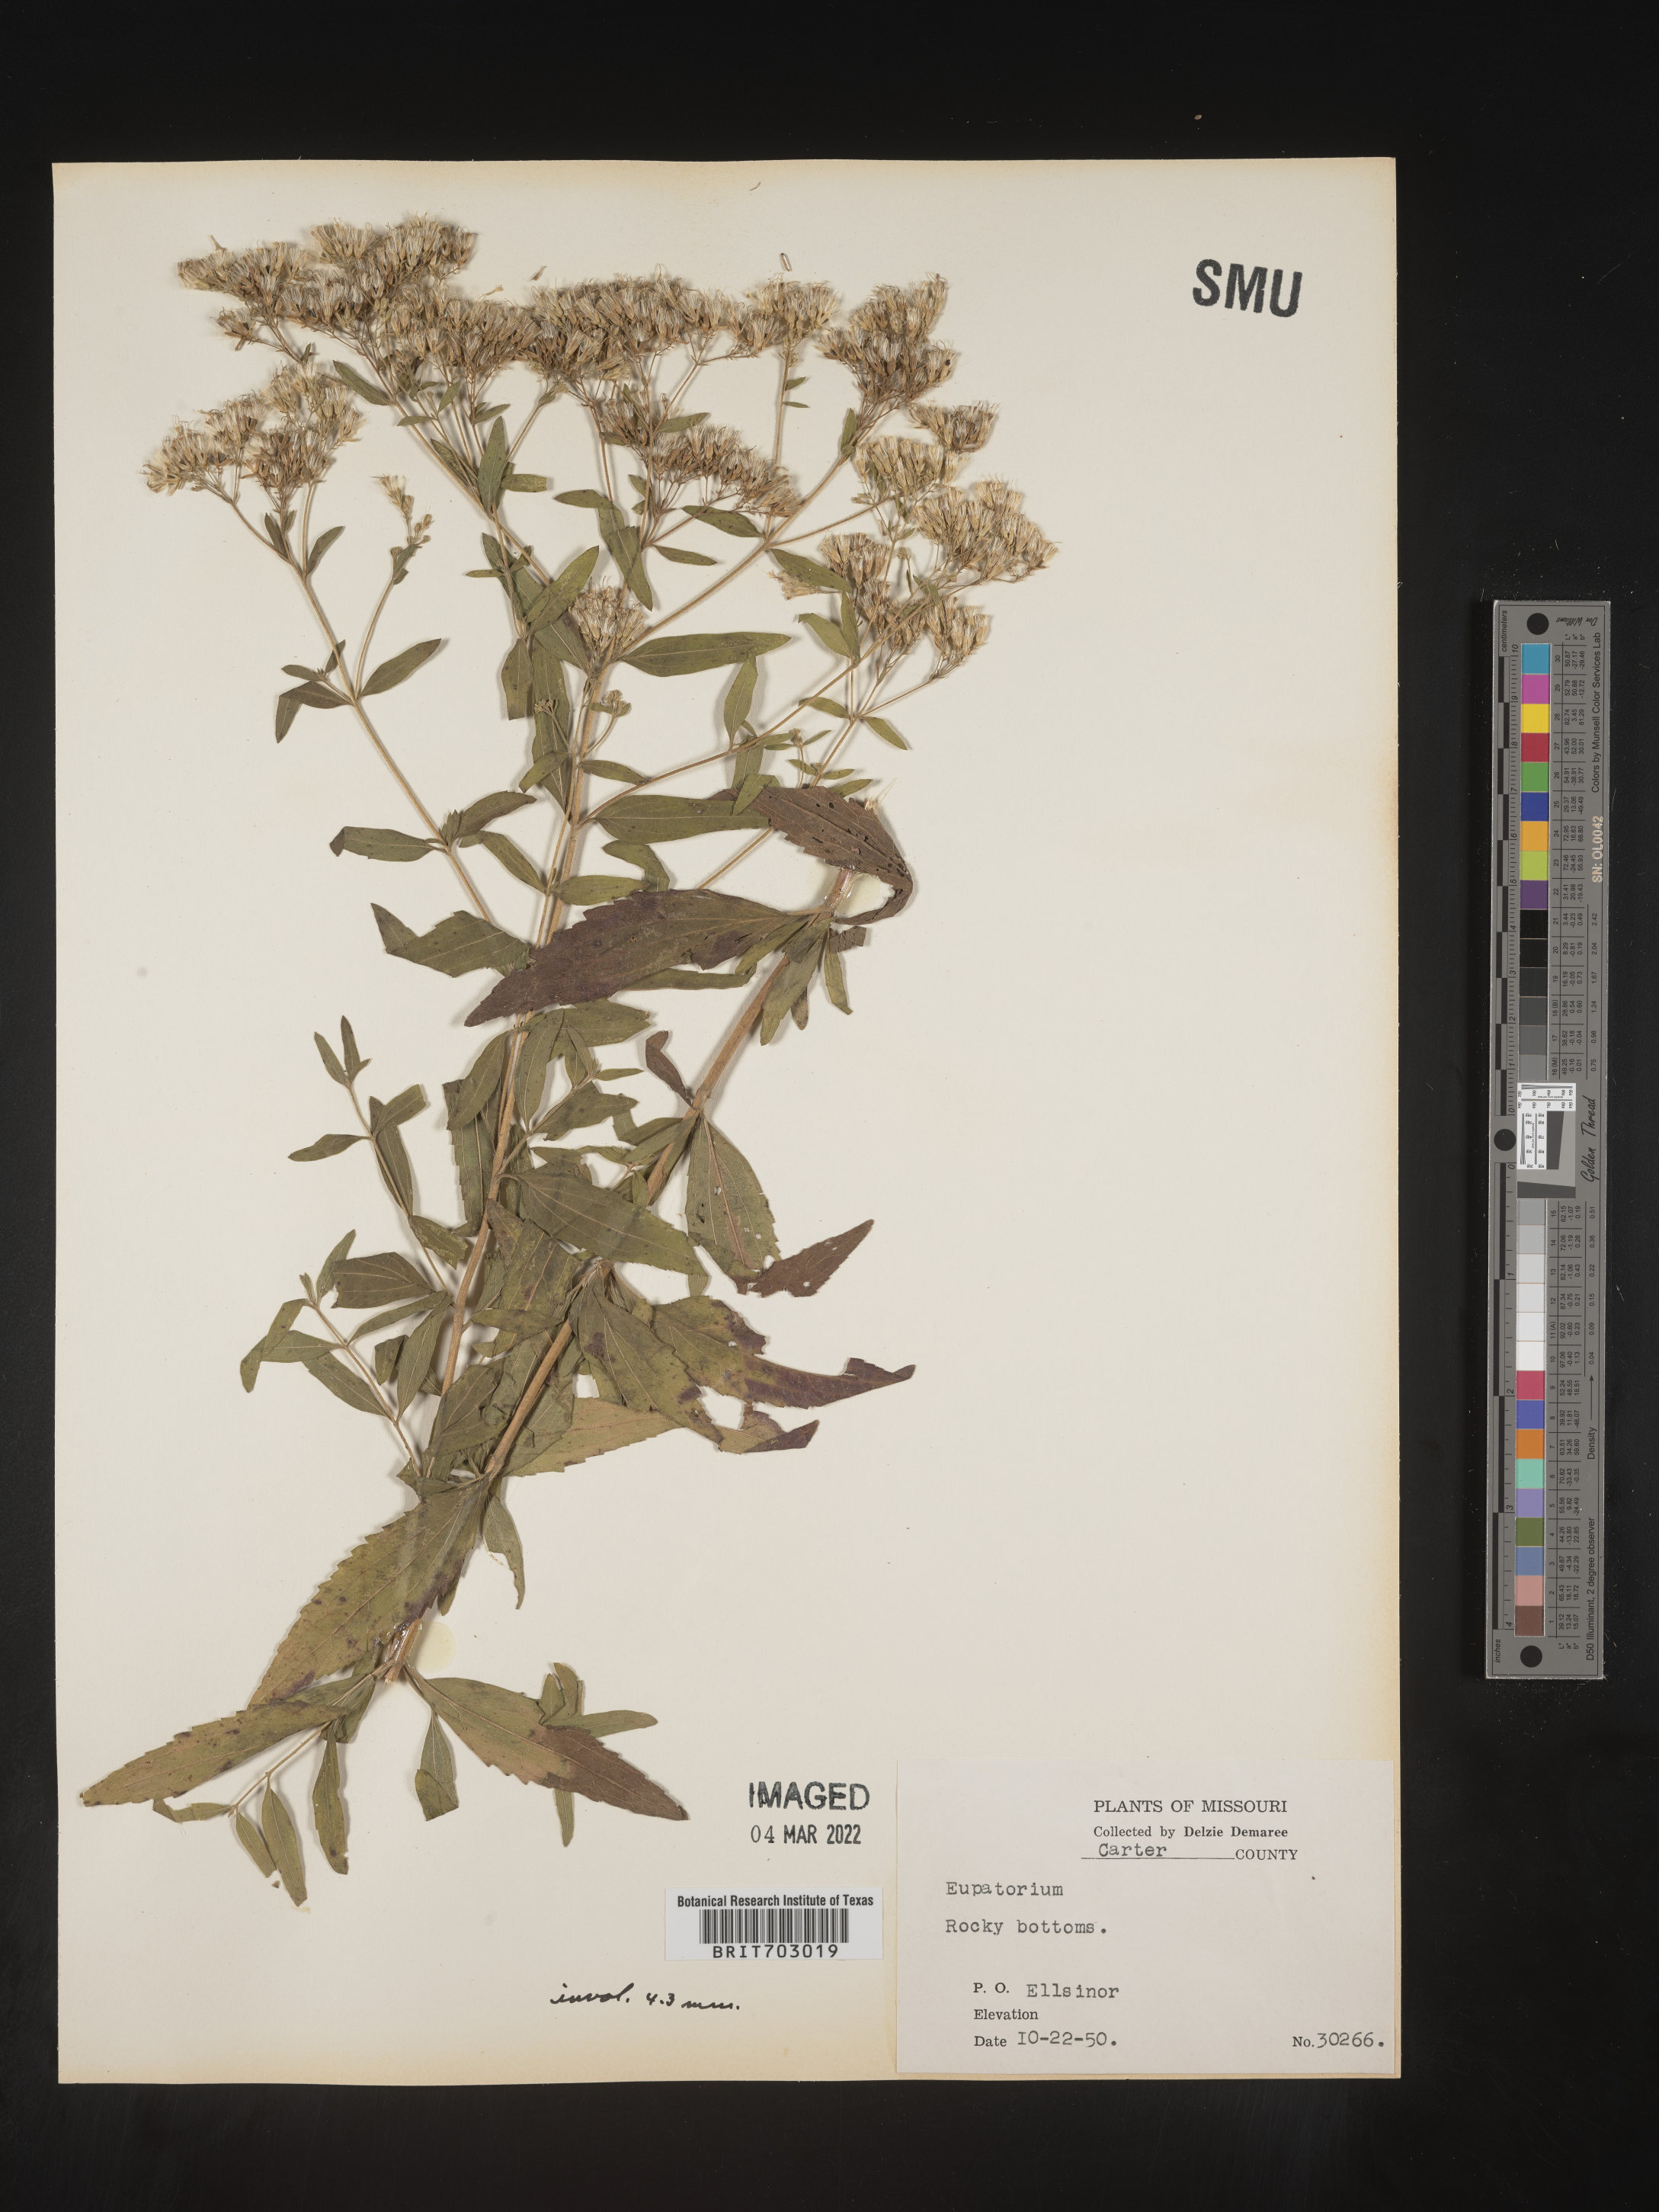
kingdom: Plantae
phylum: Tracheophyta
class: Magnoliopsida
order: Asterales
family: Asteraceae
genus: Eupatorium
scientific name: Eupatorium
